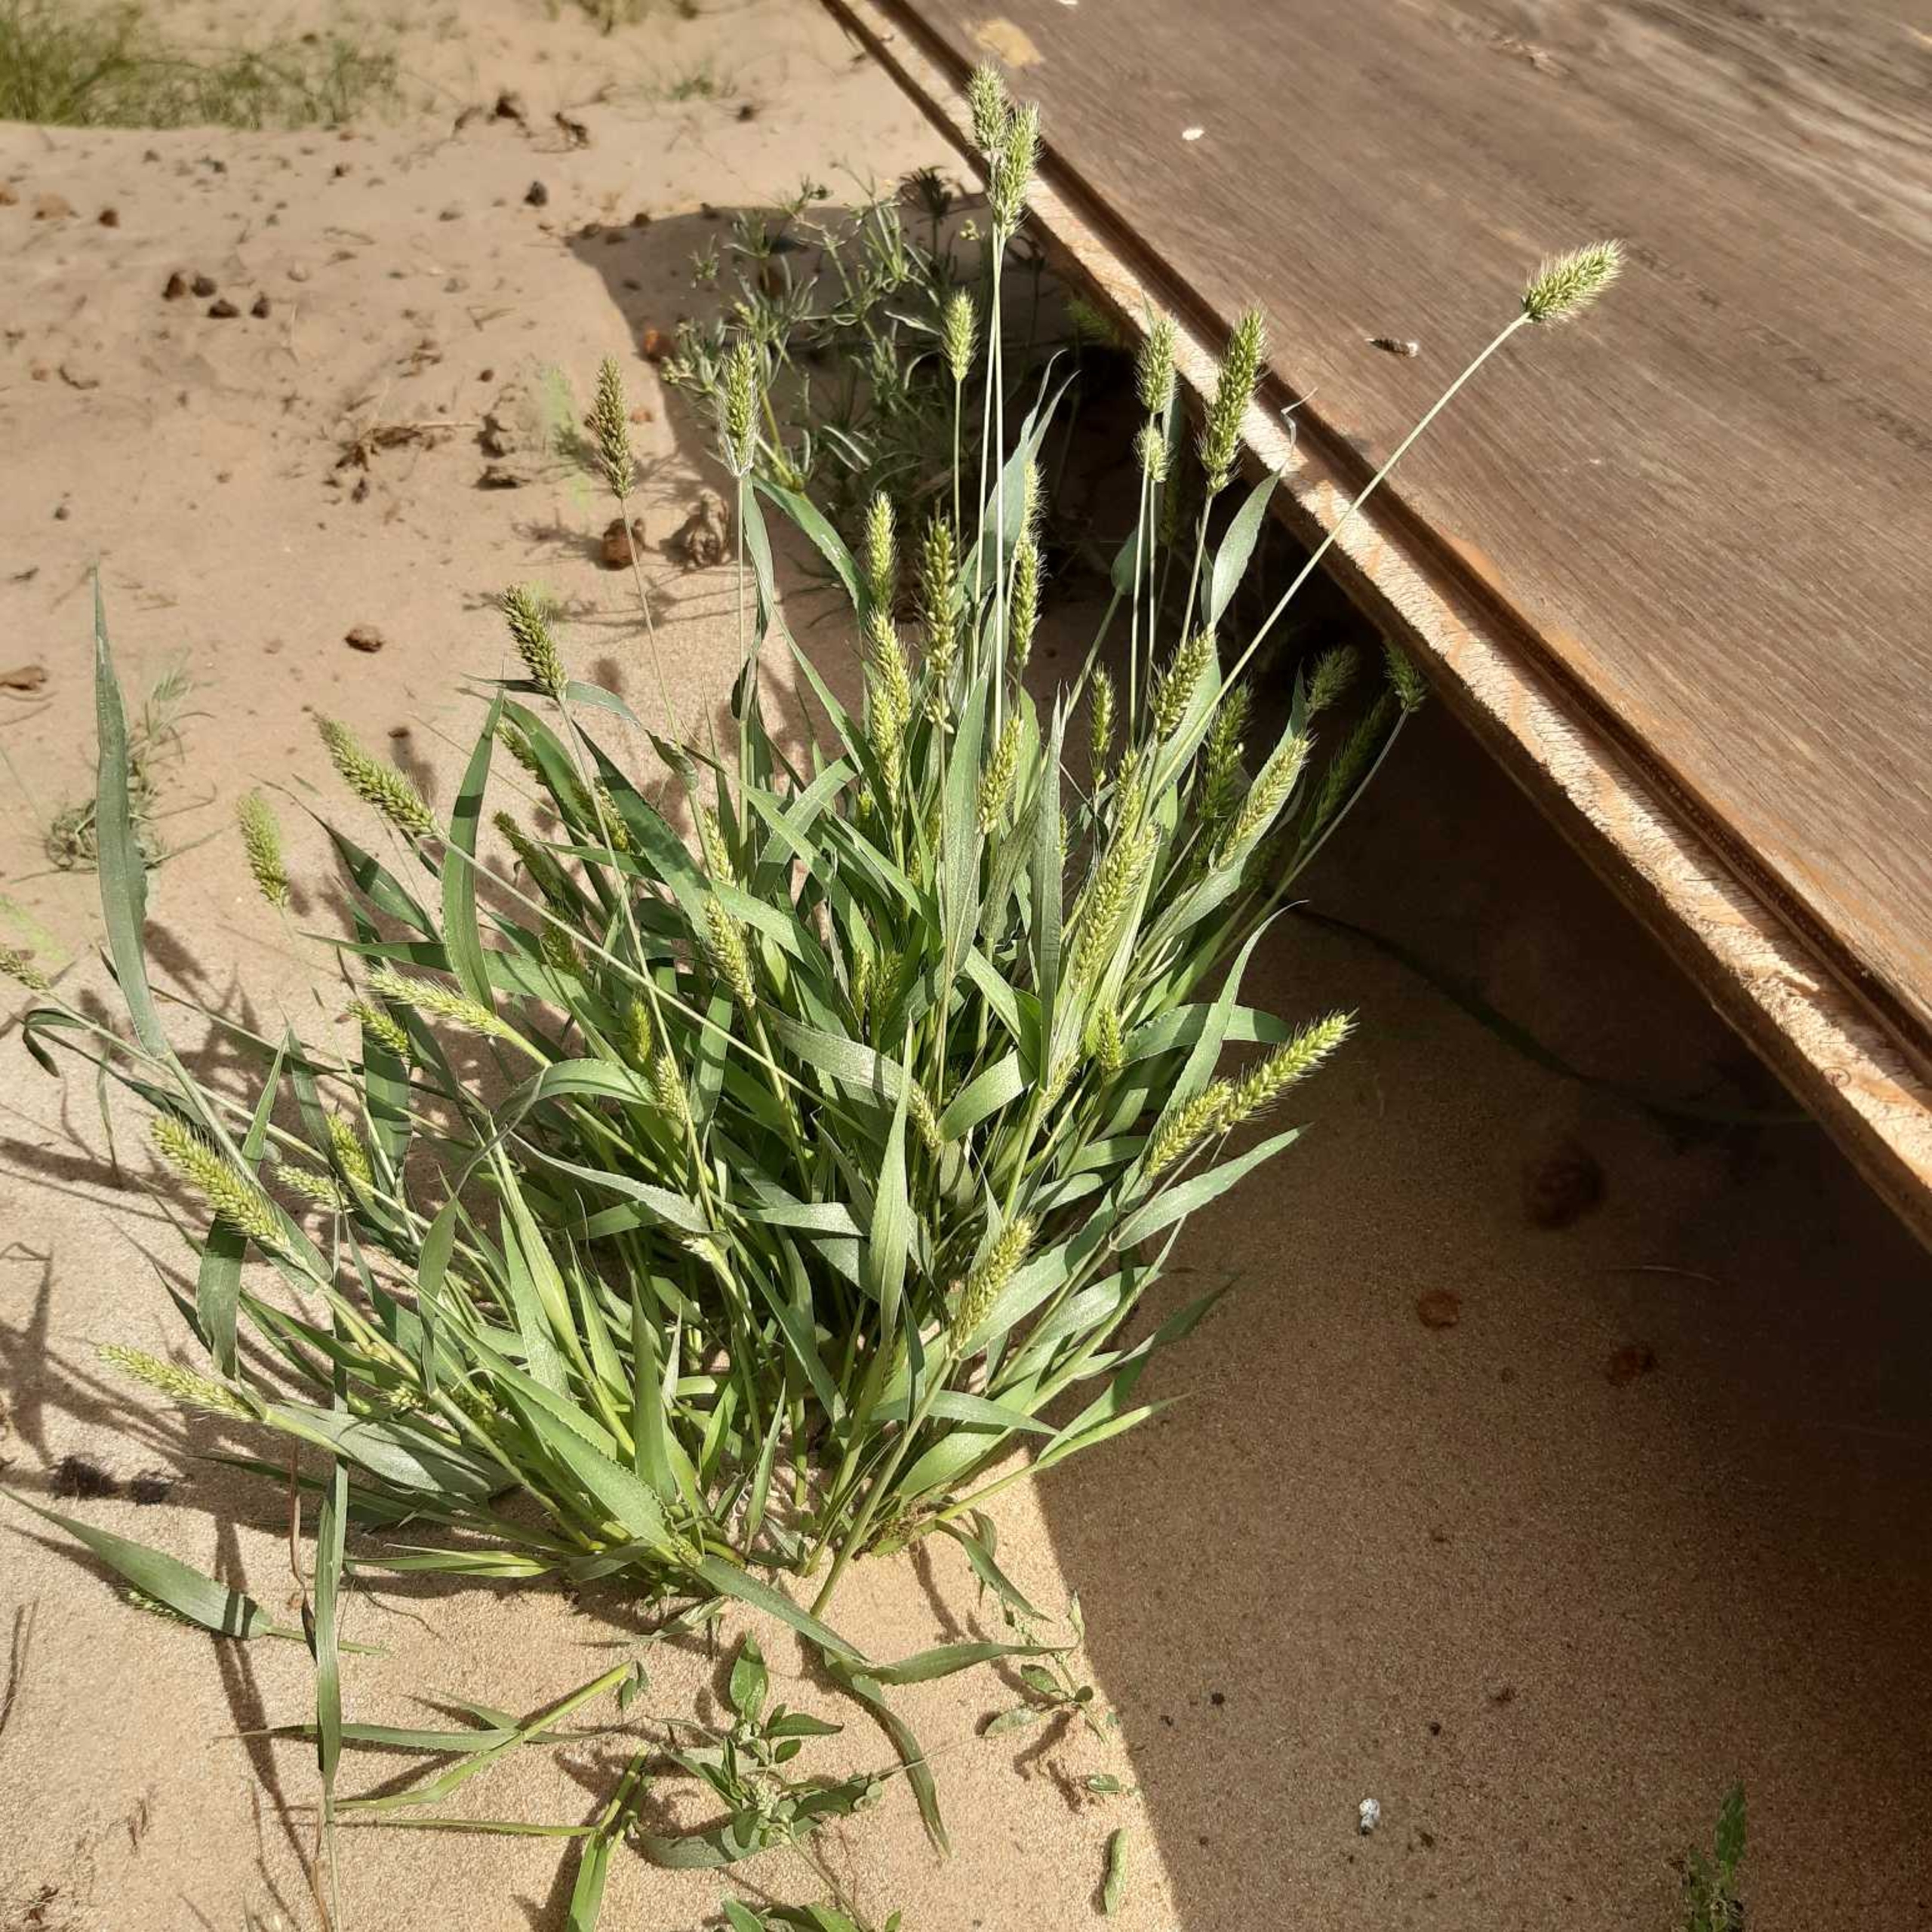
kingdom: Plantae
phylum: Tracheophyta
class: Liliopsida
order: Poales
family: Poaceae
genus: Setaria
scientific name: Setaria viridis
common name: Grøn skærmaks
